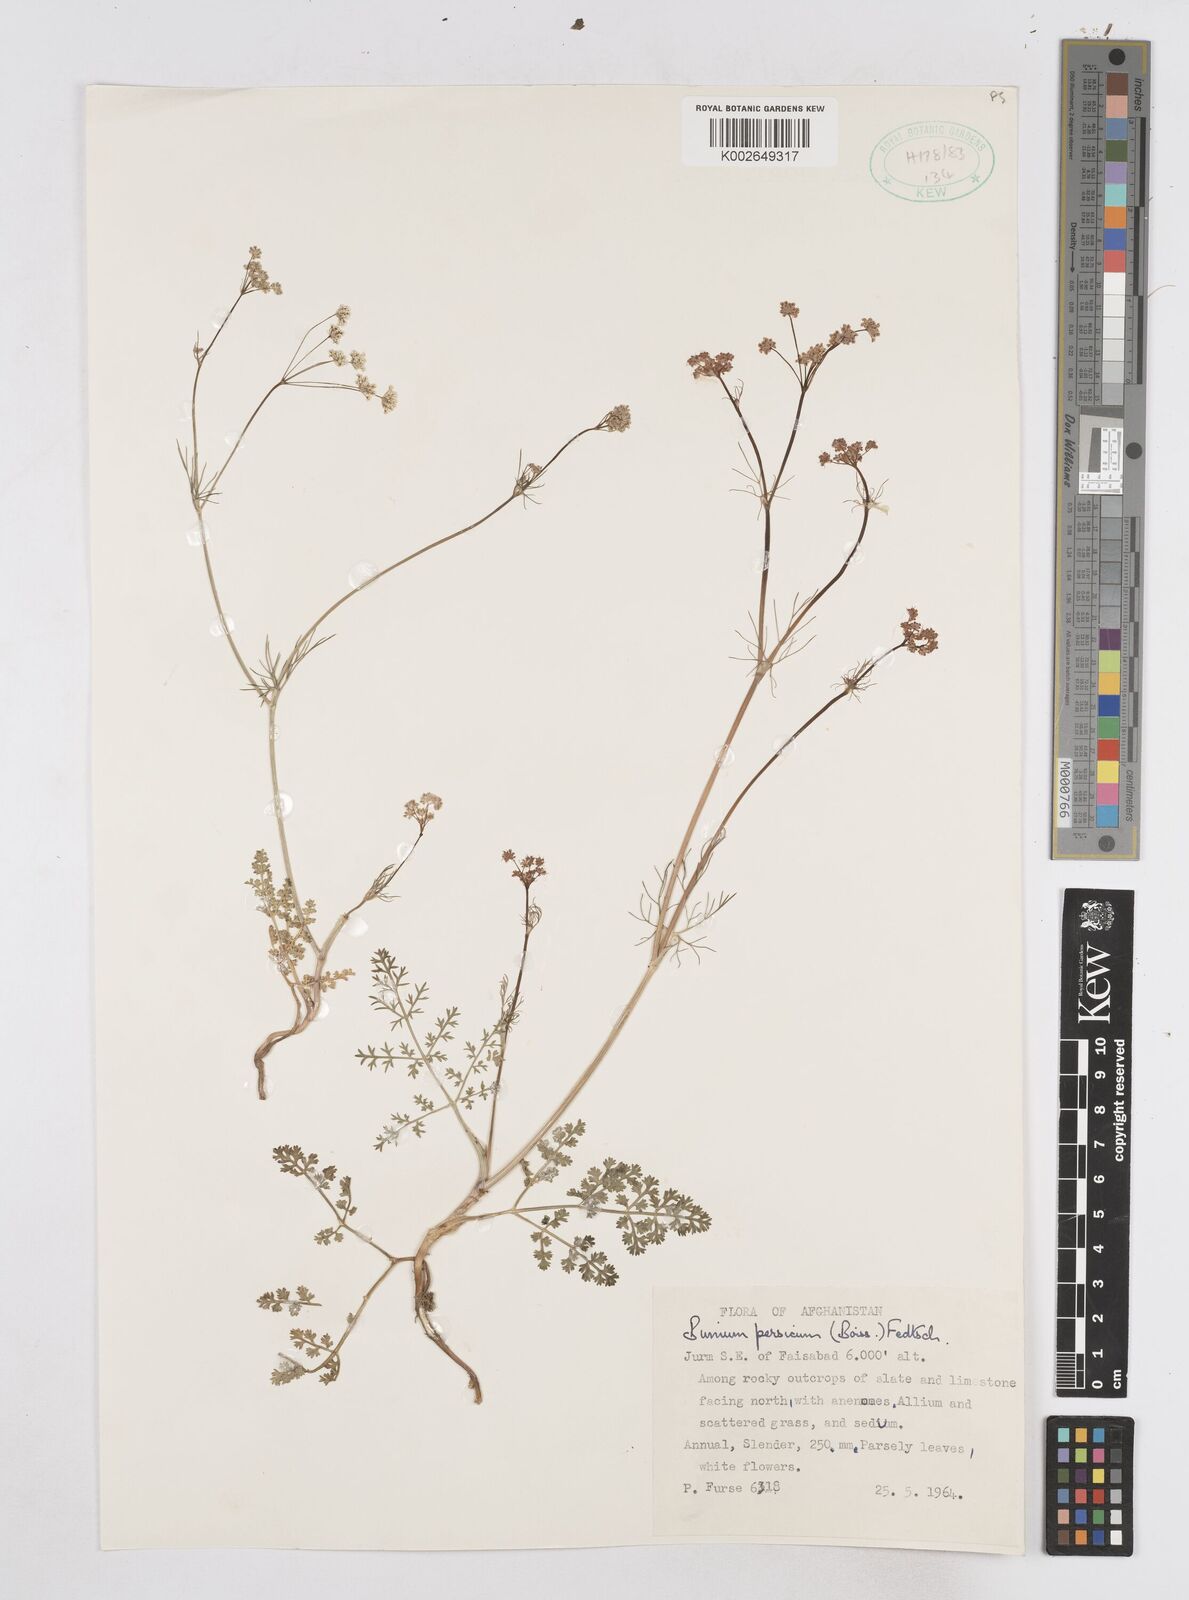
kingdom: Plantae
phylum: Tracheophyta
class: Magnoliopsida
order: Apiales
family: Apiaceae
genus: Elwendia
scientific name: Elwendia persica
